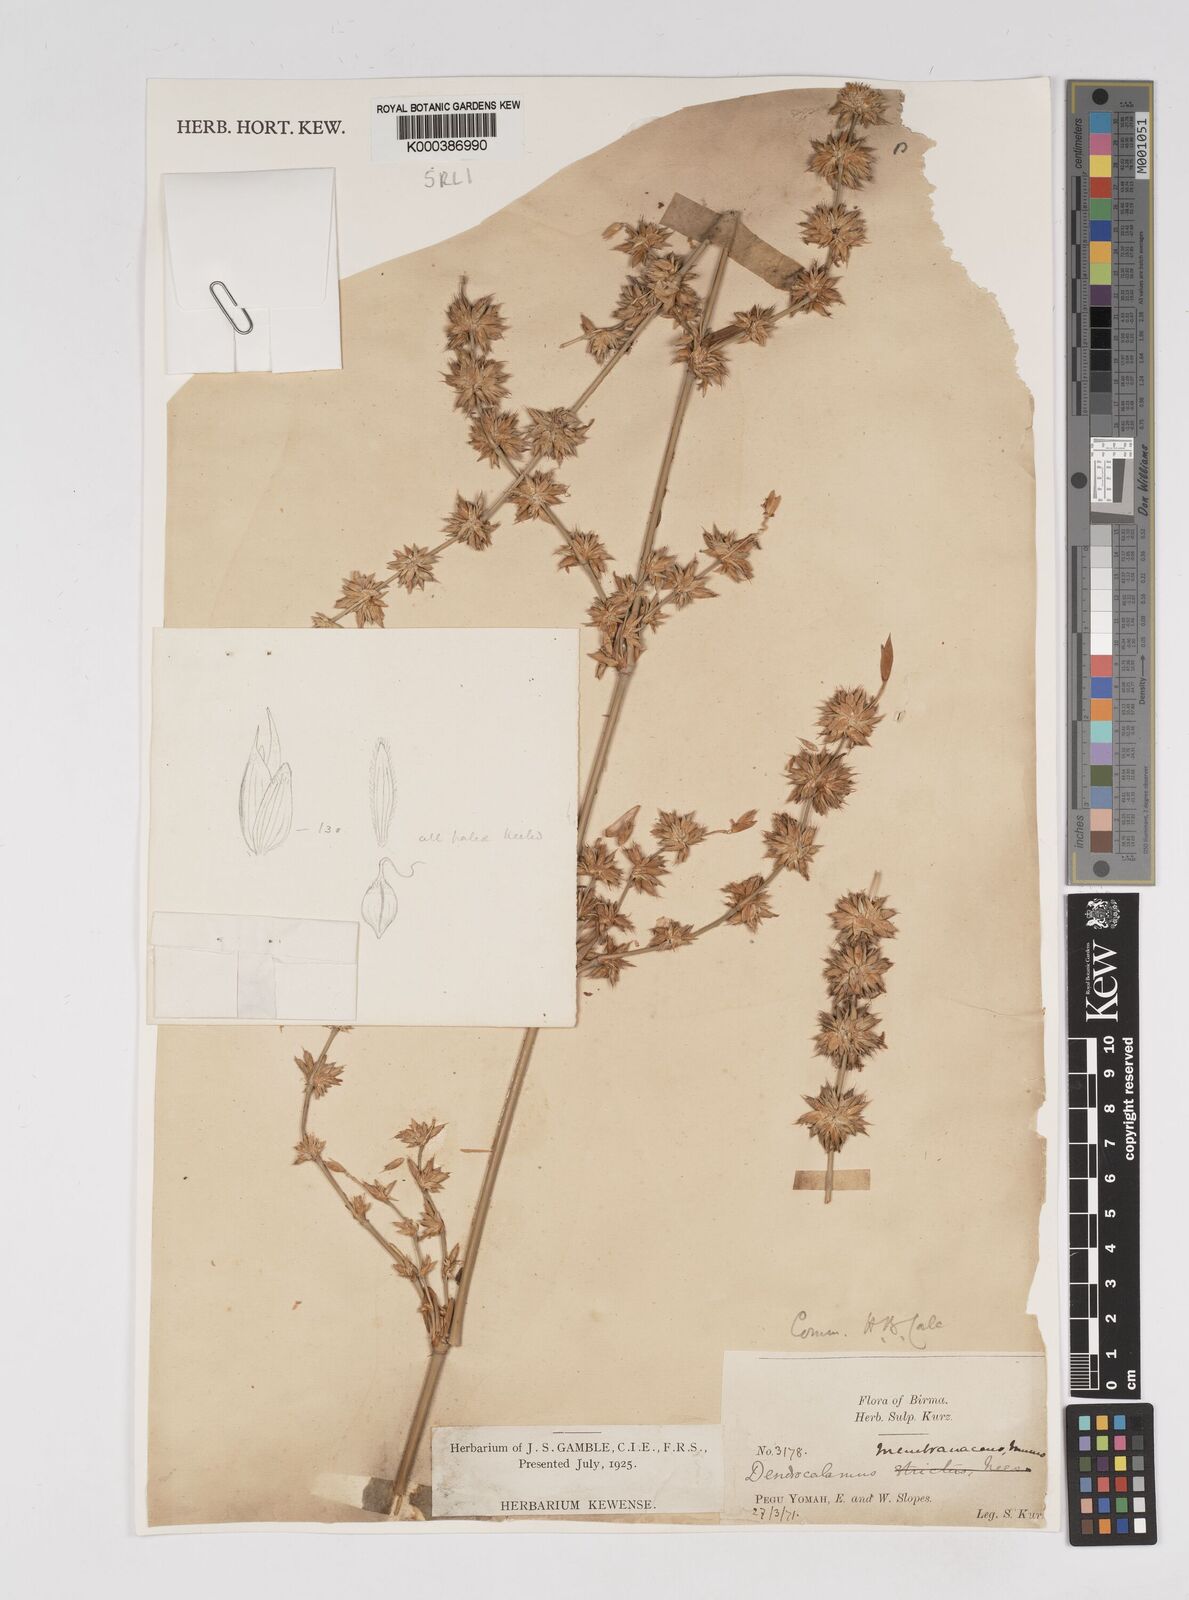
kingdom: Plantae
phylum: Tracheophyta
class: Liliopsida
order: Poales
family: Poaceae
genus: Dendrocalamus
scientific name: Dendrocalamus membranaceus
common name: White bamboo
